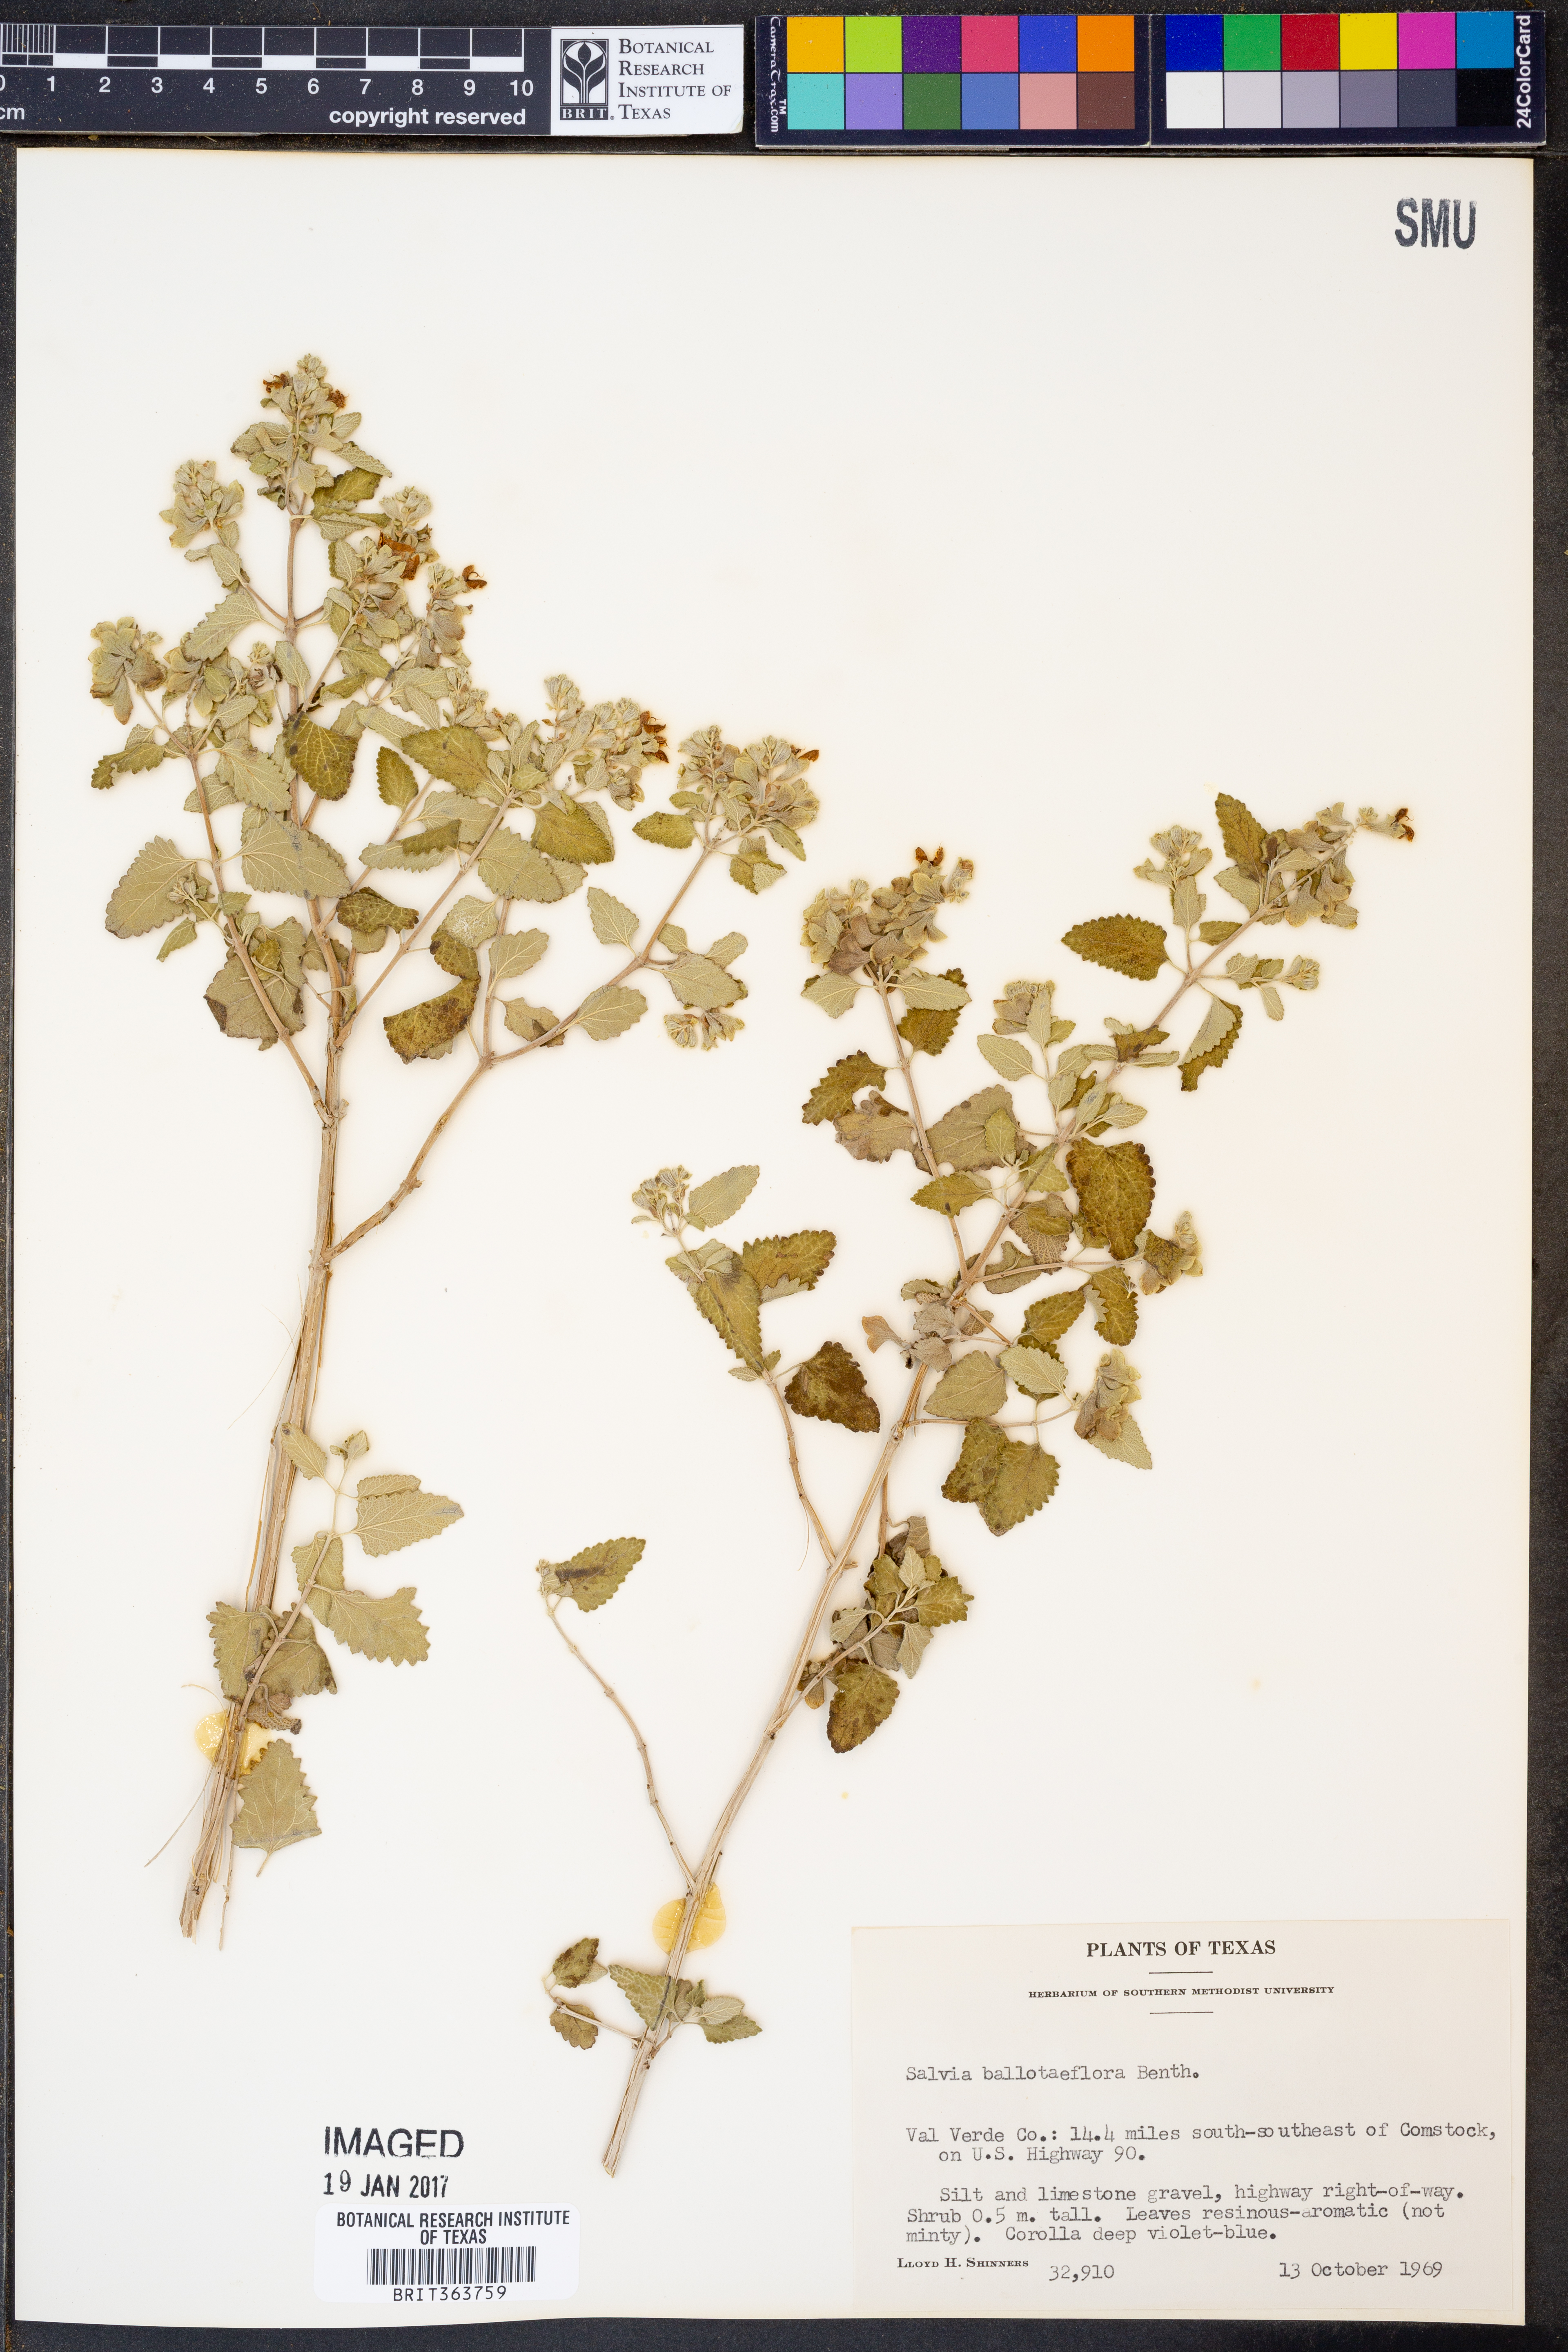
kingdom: Plantae
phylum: Tracheophyta
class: Magnoliopsida
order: Lamiales
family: Lamiaceae
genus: Salvia
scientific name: Salvia ballotiflora
